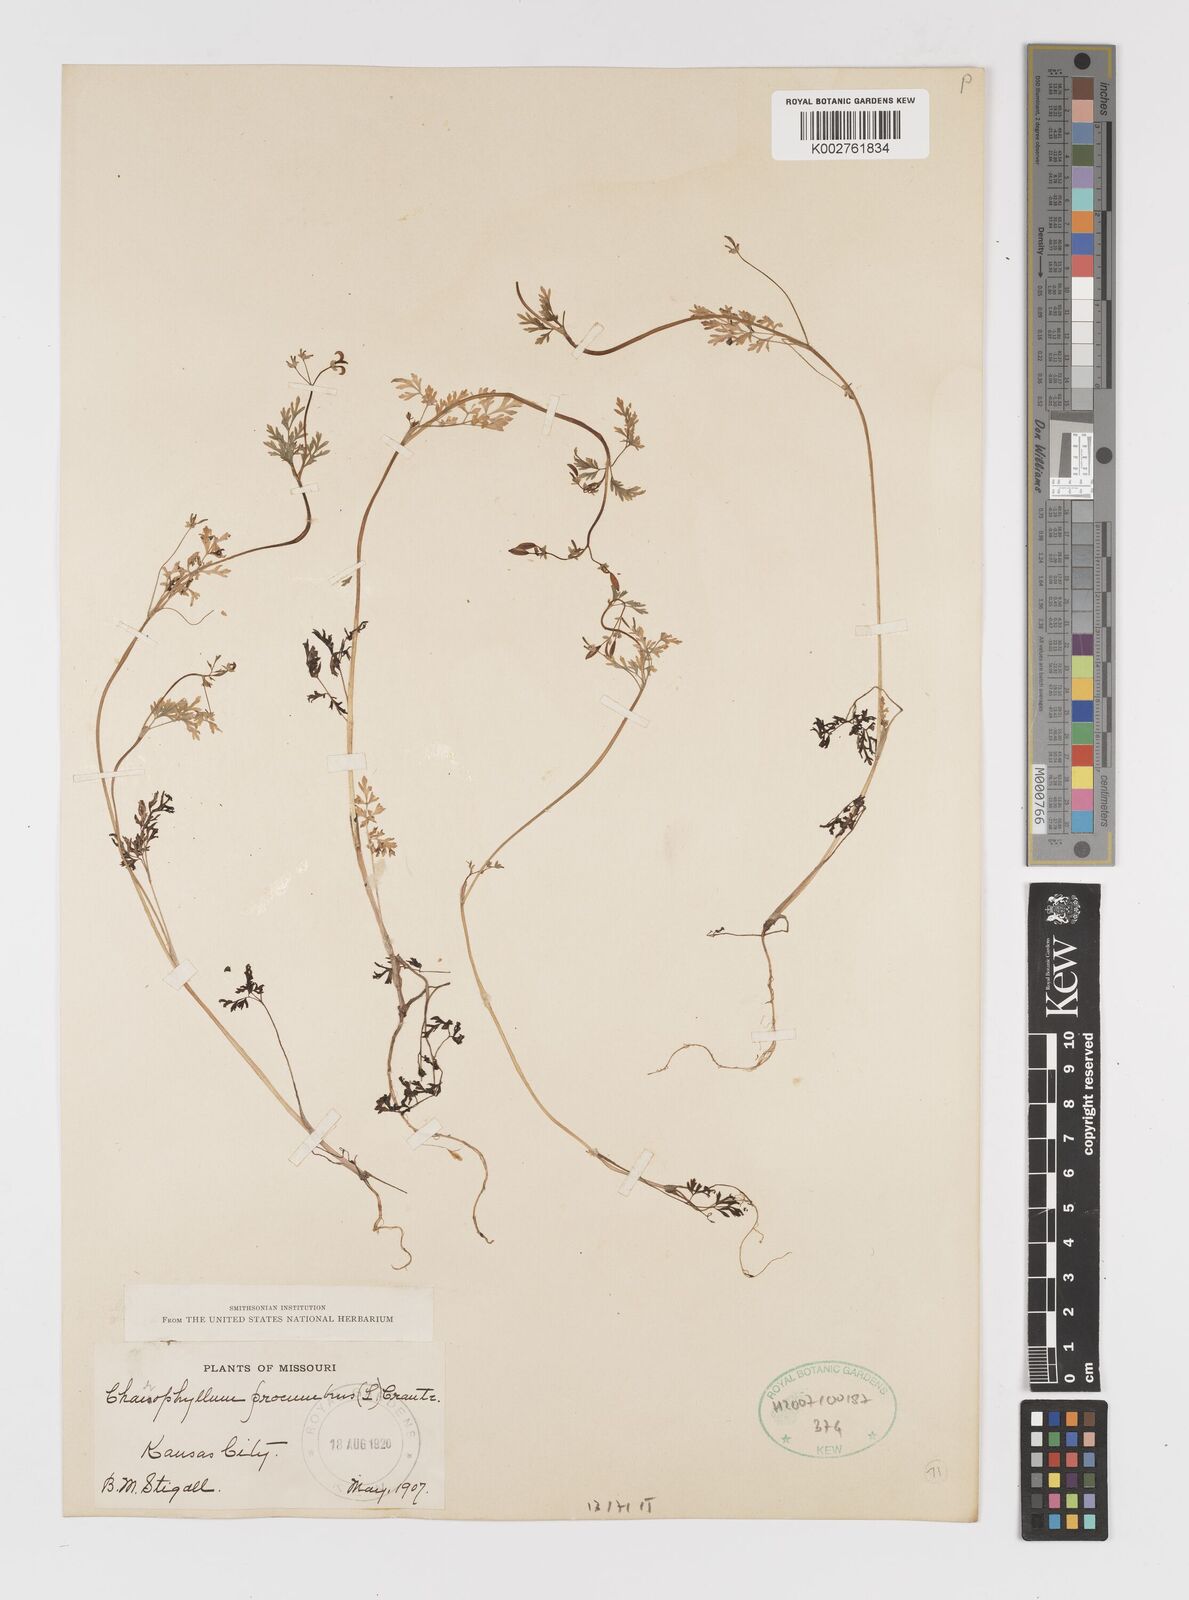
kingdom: Plantae
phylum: Tracheophyta
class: Magnoliopsida
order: Apiales
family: Apiaceae
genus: Chaerophyllum
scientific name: Chaerophyllum procumbens
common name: Spreading chervil
